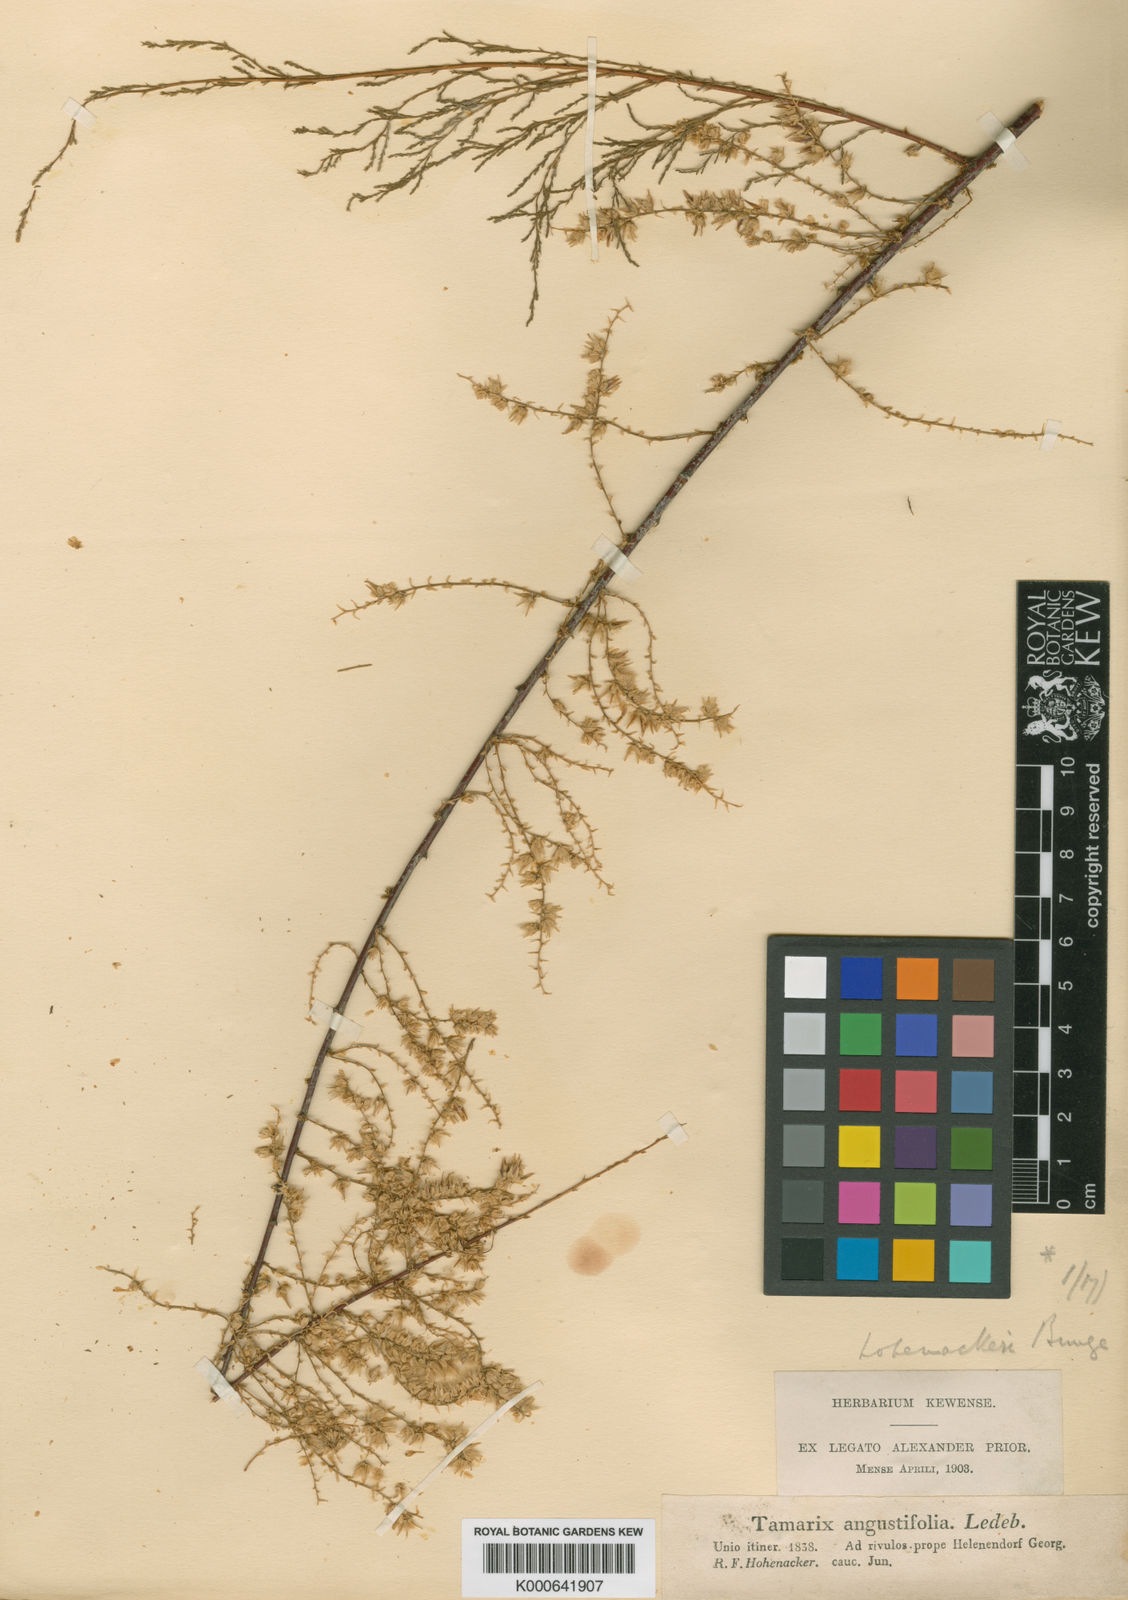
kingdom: Plantae
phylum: Tracheophyta
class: Magnoliopsida
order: Caryophyllales
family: Tamaricaceae
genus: Tamarix
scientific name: Tamarix hohenackeri
